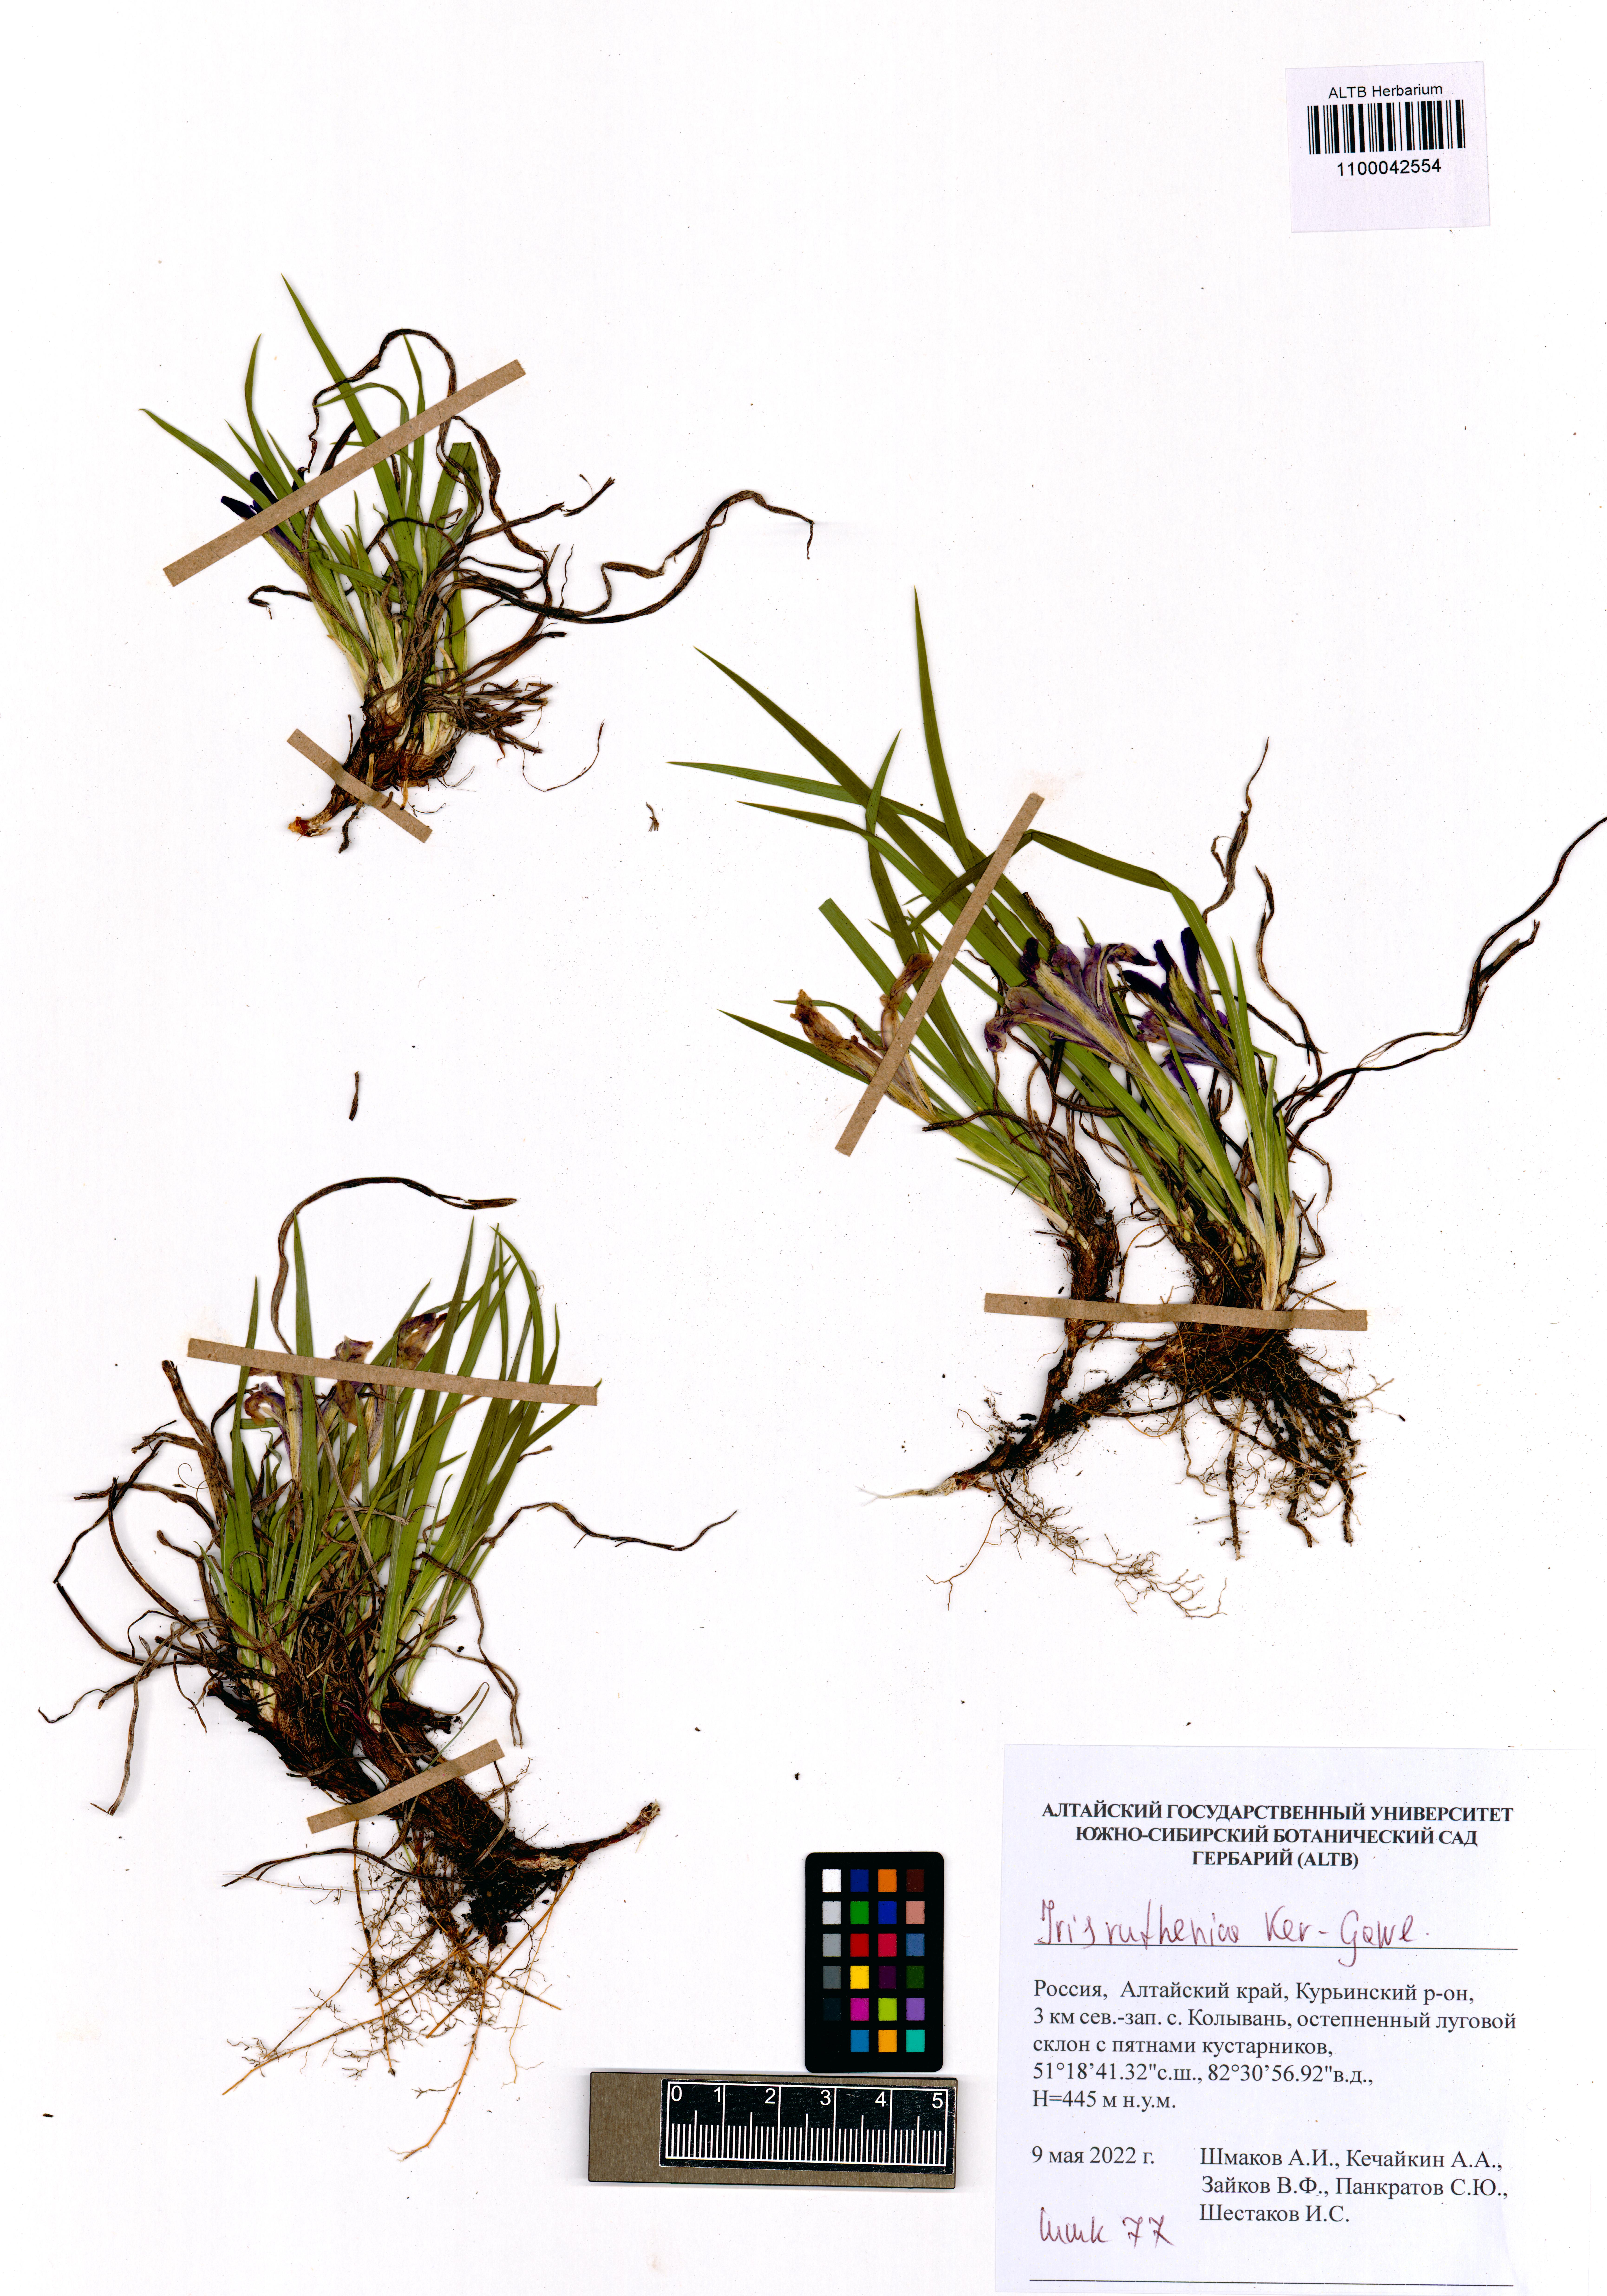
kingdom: Plantae
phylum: Tracheophyta
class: Liliopsida
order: Asparagales
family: Iridaceae
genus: Iris
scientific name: Iris ruthenica
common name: Purple-bract iris
